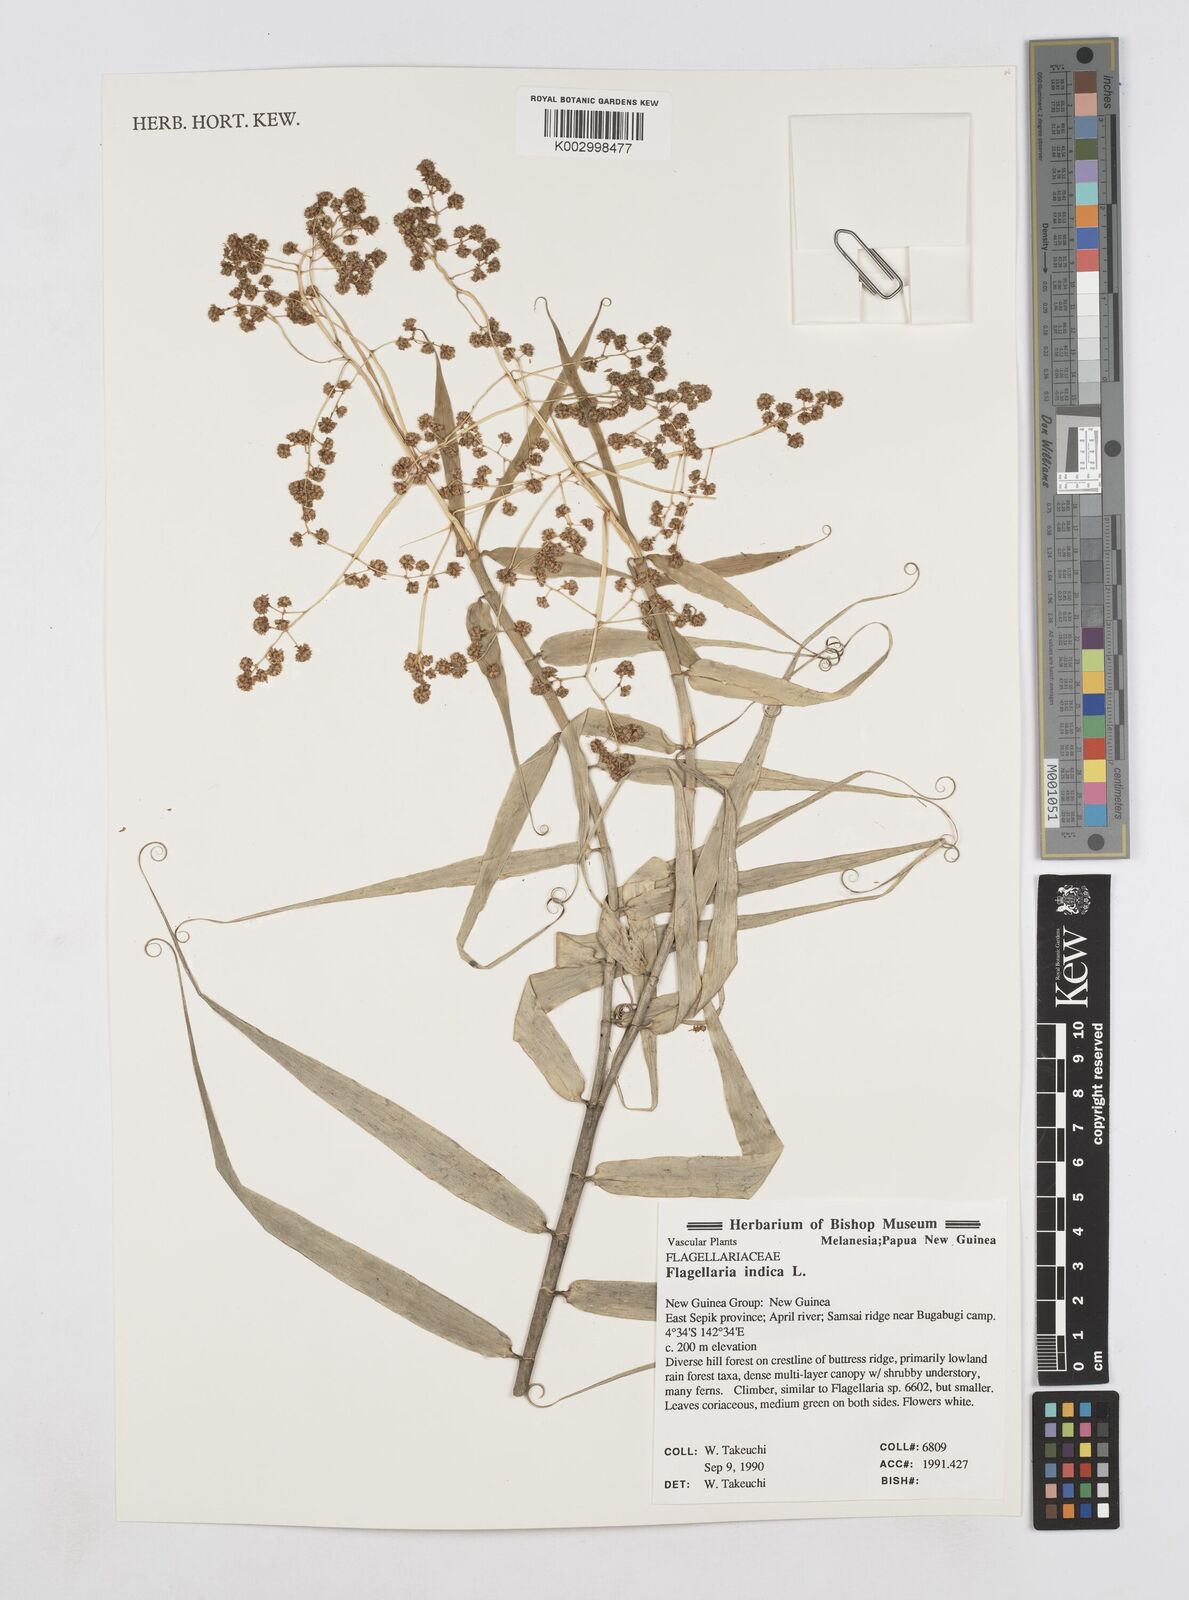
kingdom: Plantae
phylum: Tracheophyta
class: Liliopsida
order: Poales
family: Flagellariaceae
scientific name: Flagellariaceae
